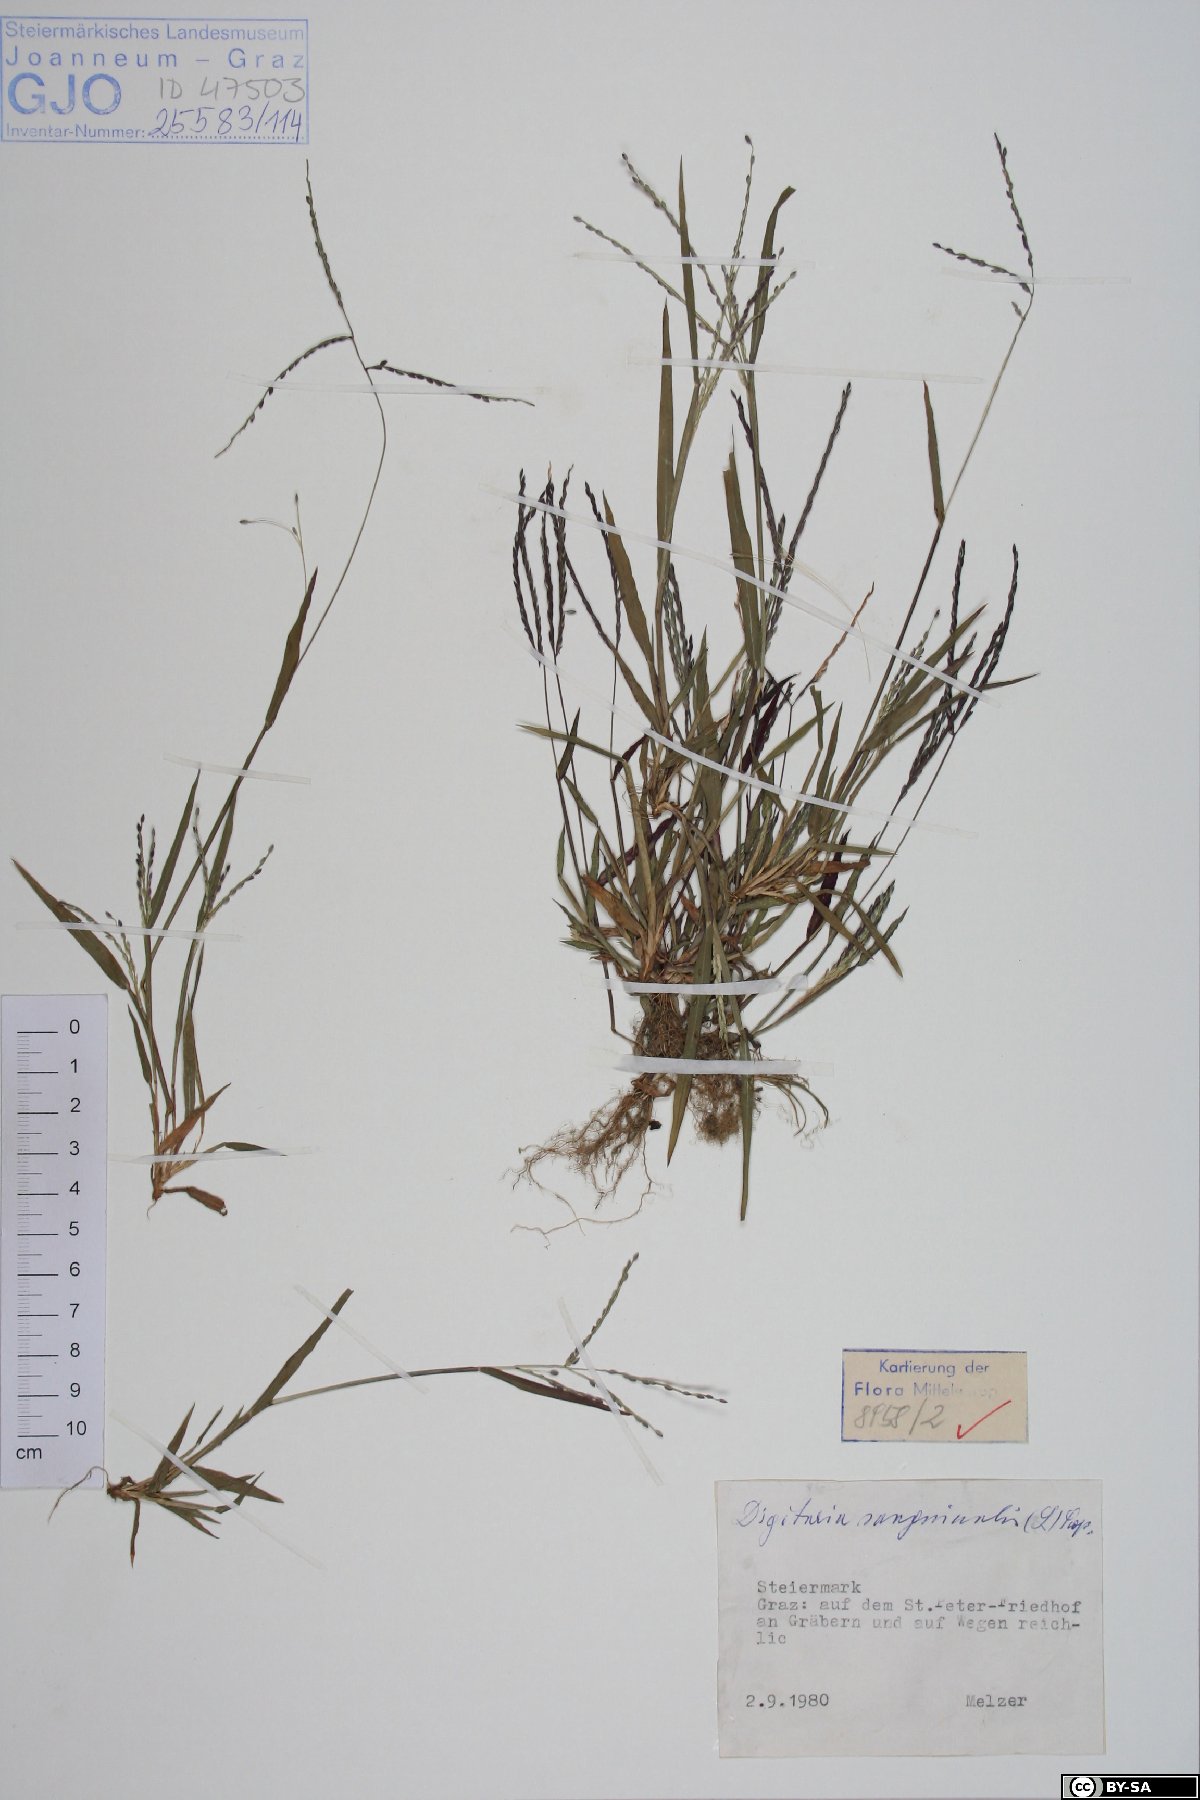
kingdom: Plantae
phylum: Tracheophyta
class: Liliopsida
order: Poales
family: Poaceae
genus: Digitaria
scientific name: Digitaria sanguinalis
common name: Hairy crabgrass
